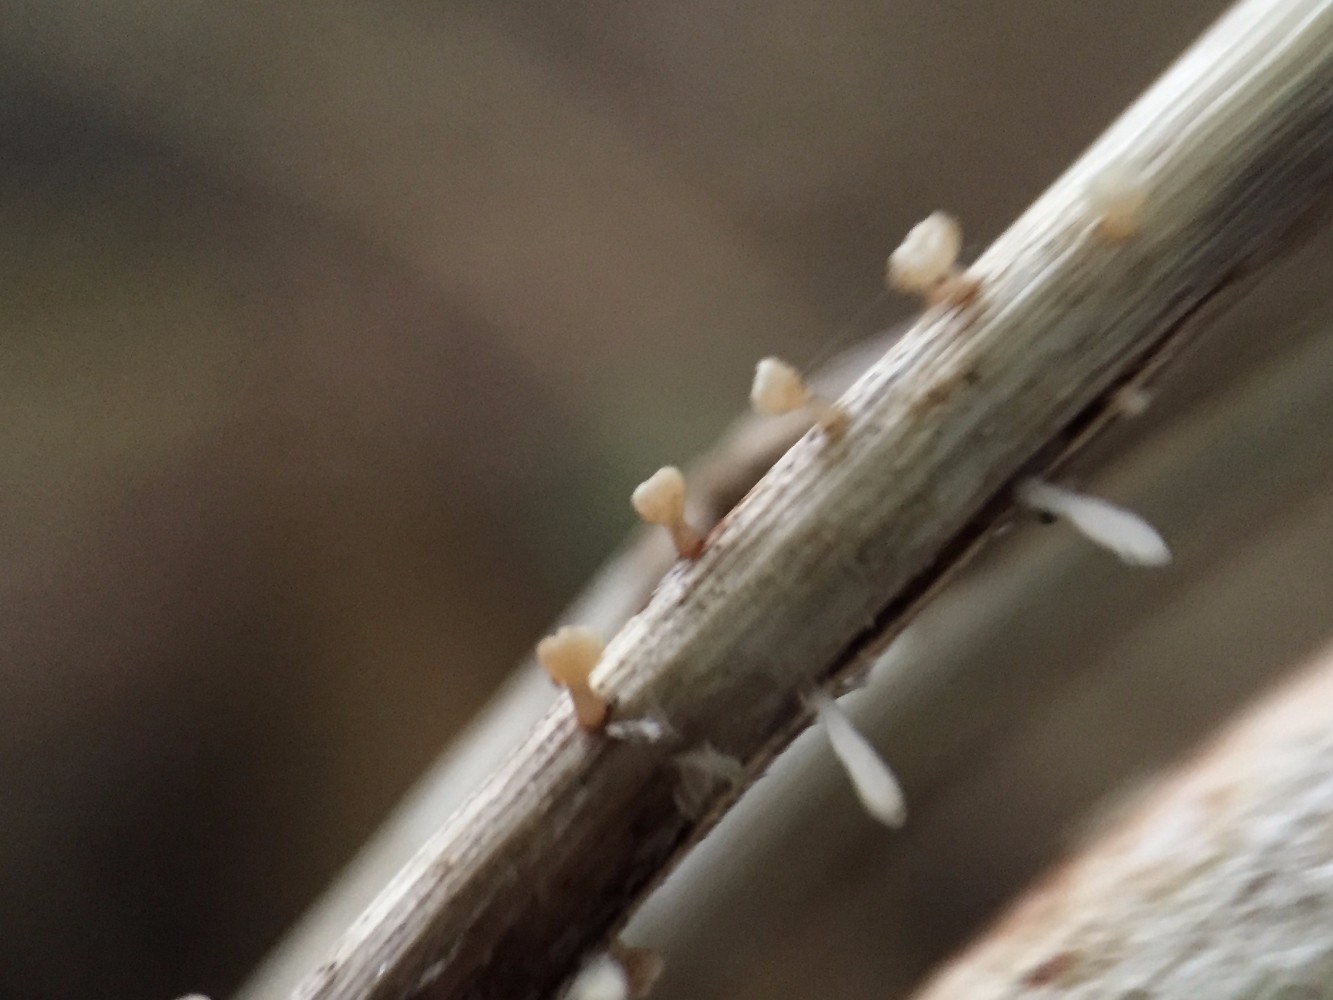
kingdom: Fungi
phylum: Ascomycota
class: Leotiomycetes
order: Helotiales
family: Helotiaceae
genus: Cyathicula
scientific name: Cyathicula cyathoidea
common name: pokal-stilkskive
